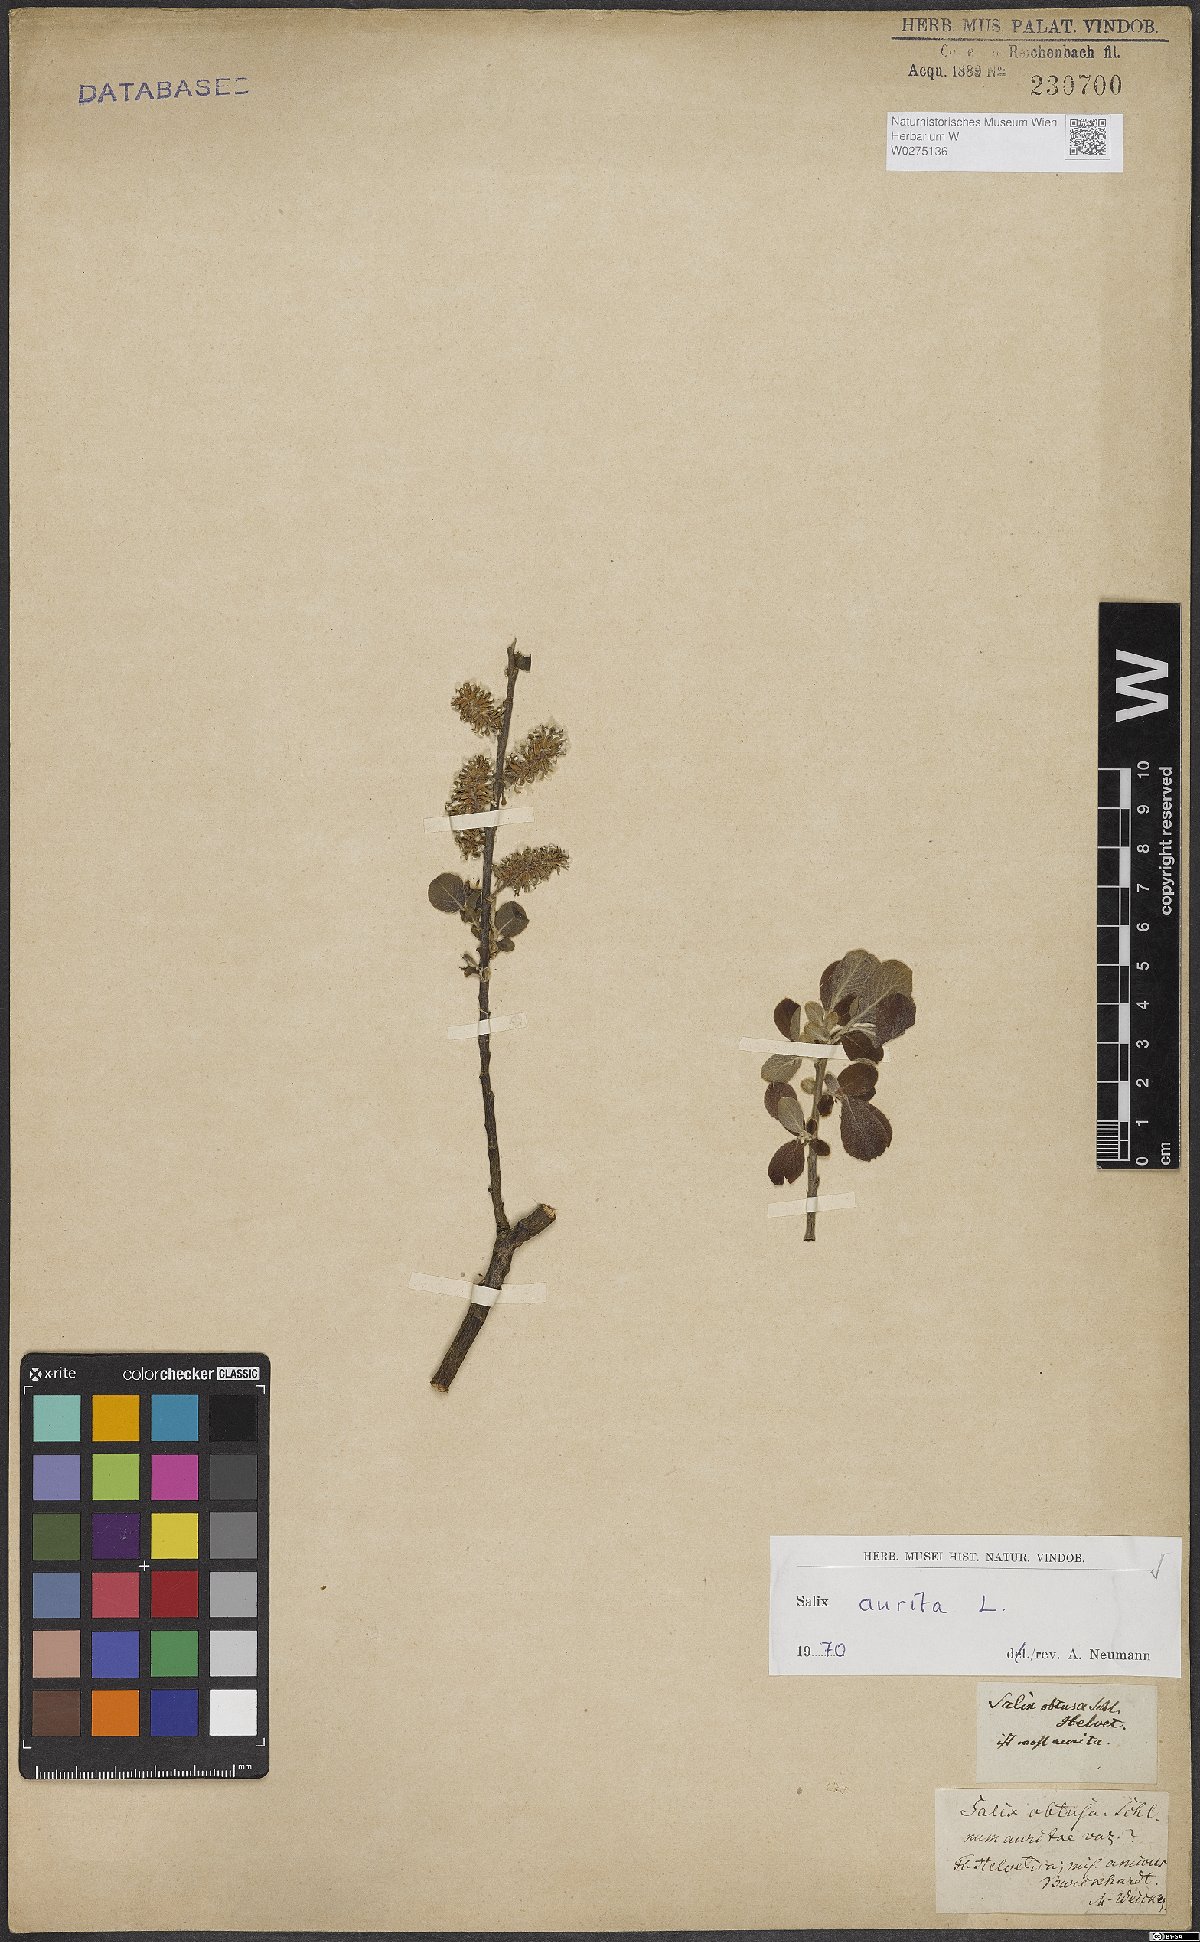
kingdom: Plantae
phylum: Tracheophyta
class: Magnoliopsida
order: Malpighiales
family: Salicaceae
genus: Salix
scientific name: Salix aurita
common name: Eared willow
